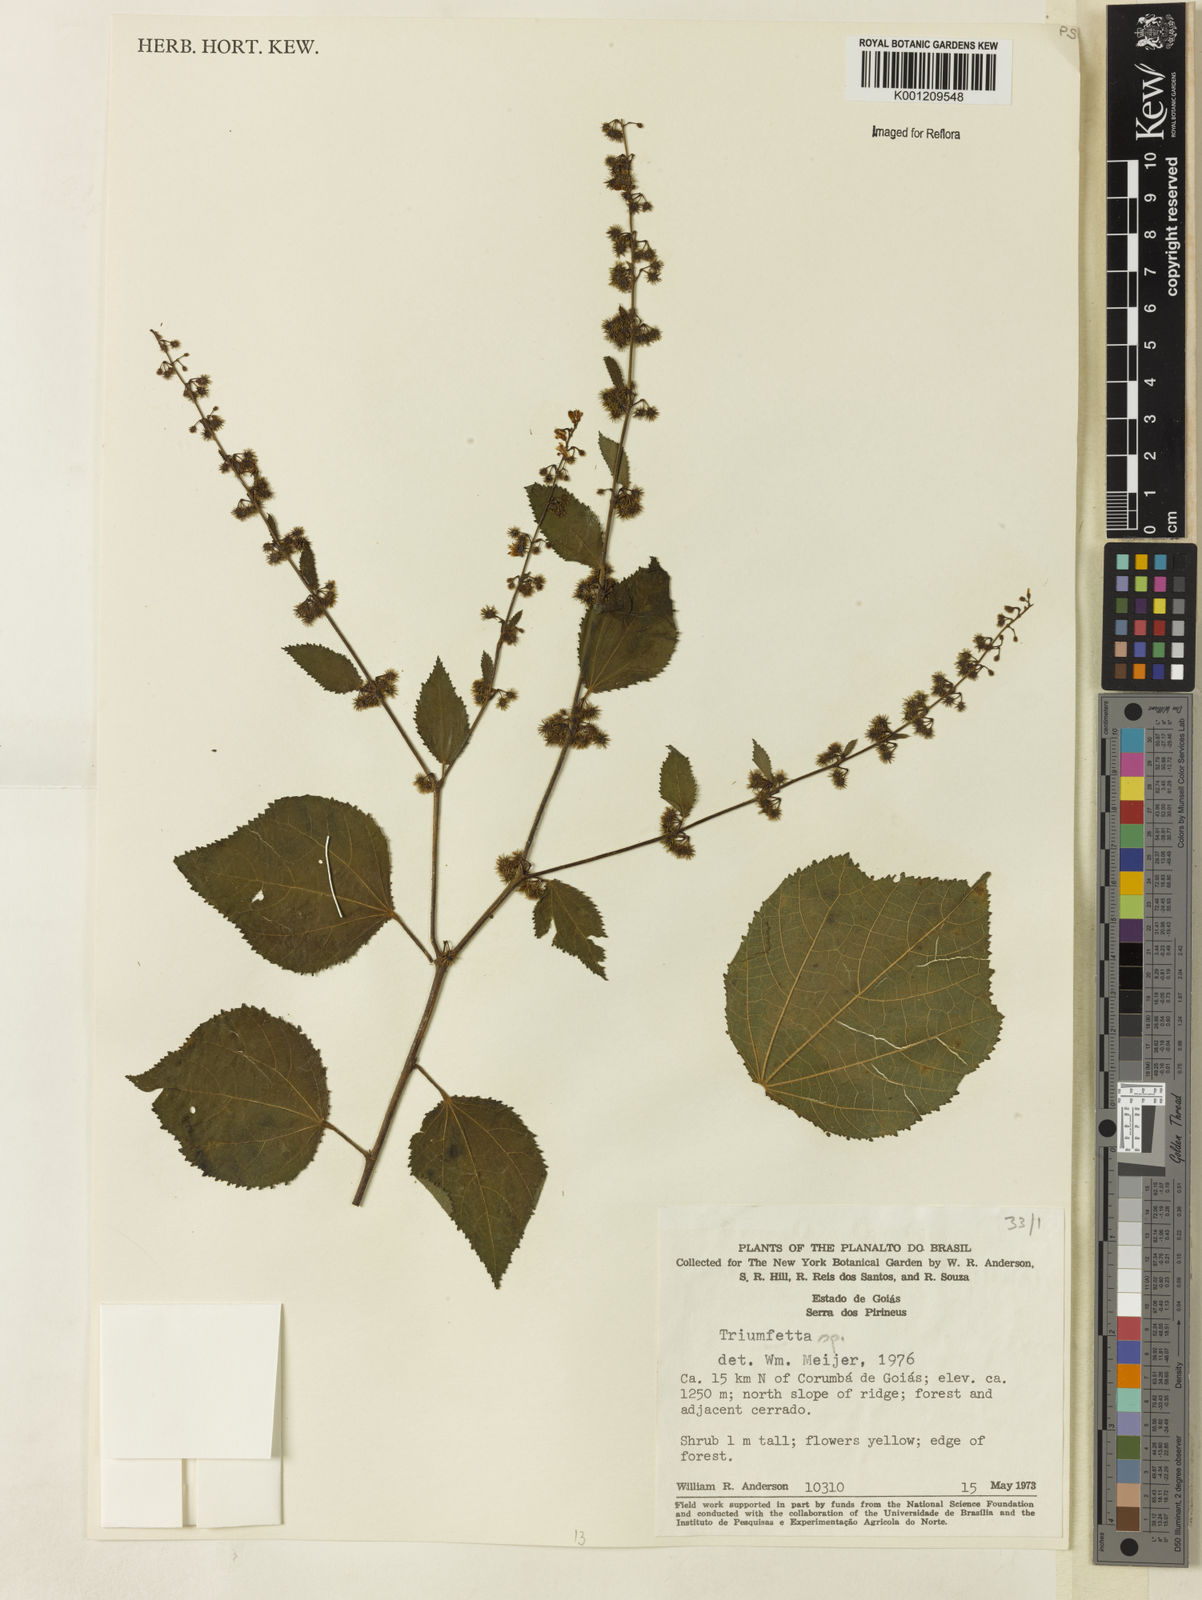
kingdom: Plantae
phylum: Tracheophyta
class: Magnoliopsida
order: Malvales
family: Malvaceae
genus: Triumfetta
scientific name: Triumfetta
